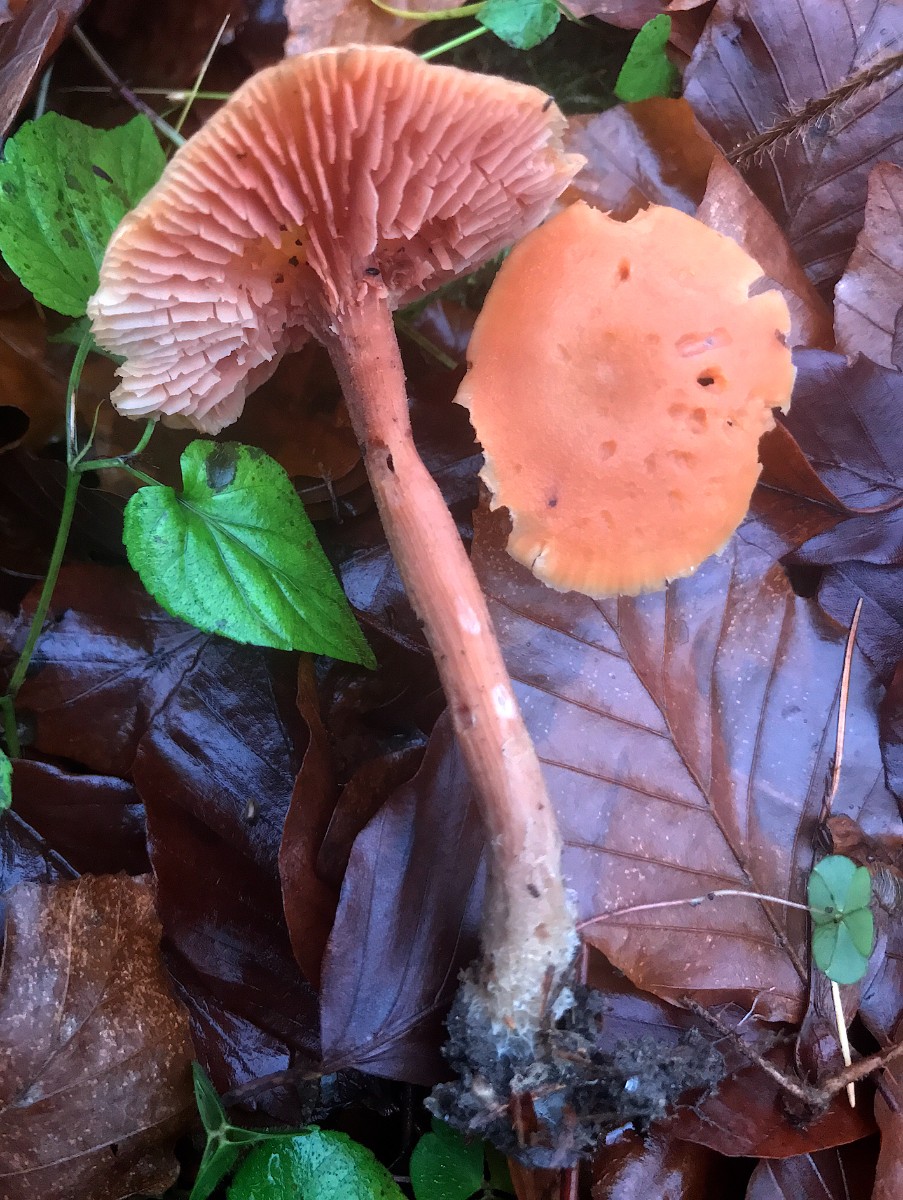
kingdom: Fungi
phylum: Basidiomycota
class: Agaricomycetes
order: Agaricales
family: Hydnangiaceae
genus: Laccaria
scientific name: Laccaria laccata
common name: rød ametysthat
